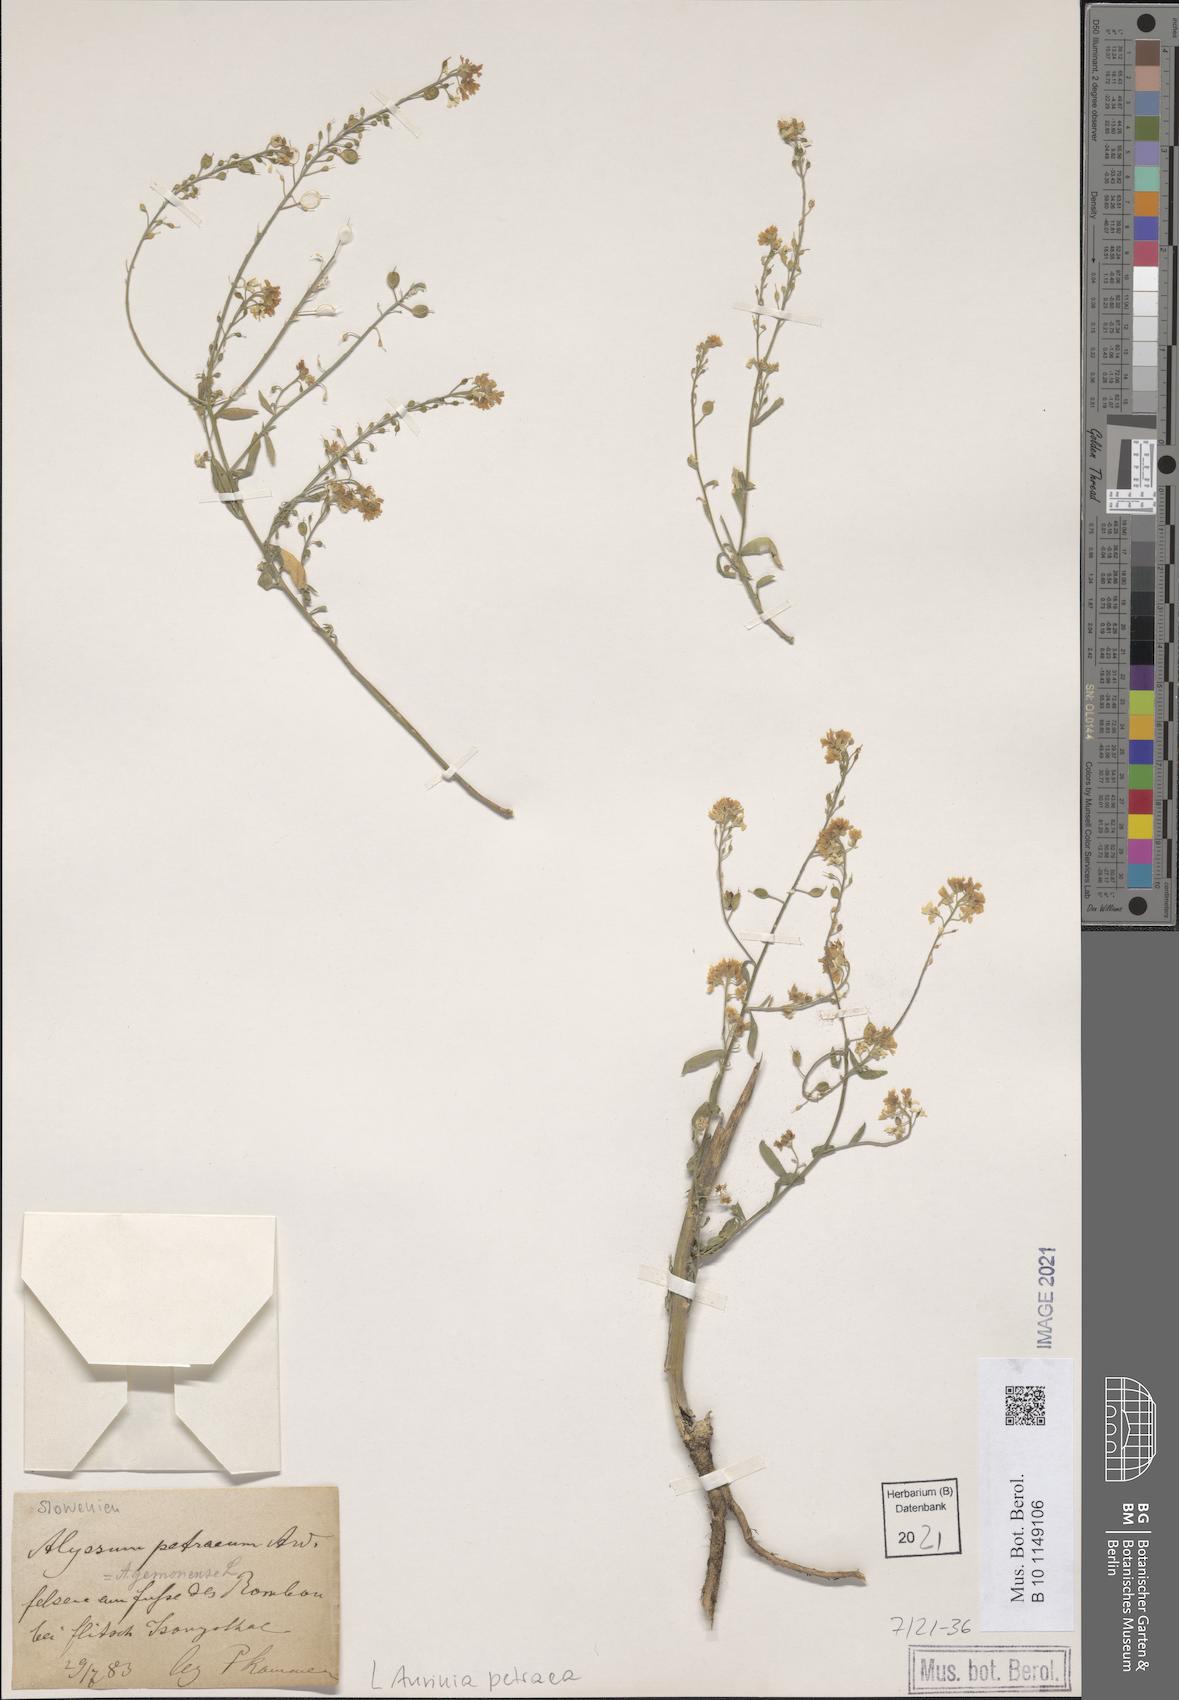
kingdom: Plantae
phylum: Tracheophyta
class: Magnoliopsida
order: Brassicales
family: Brassicaceae
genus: Aurinia
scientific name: Aurinia petraea
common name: Goldentuft
